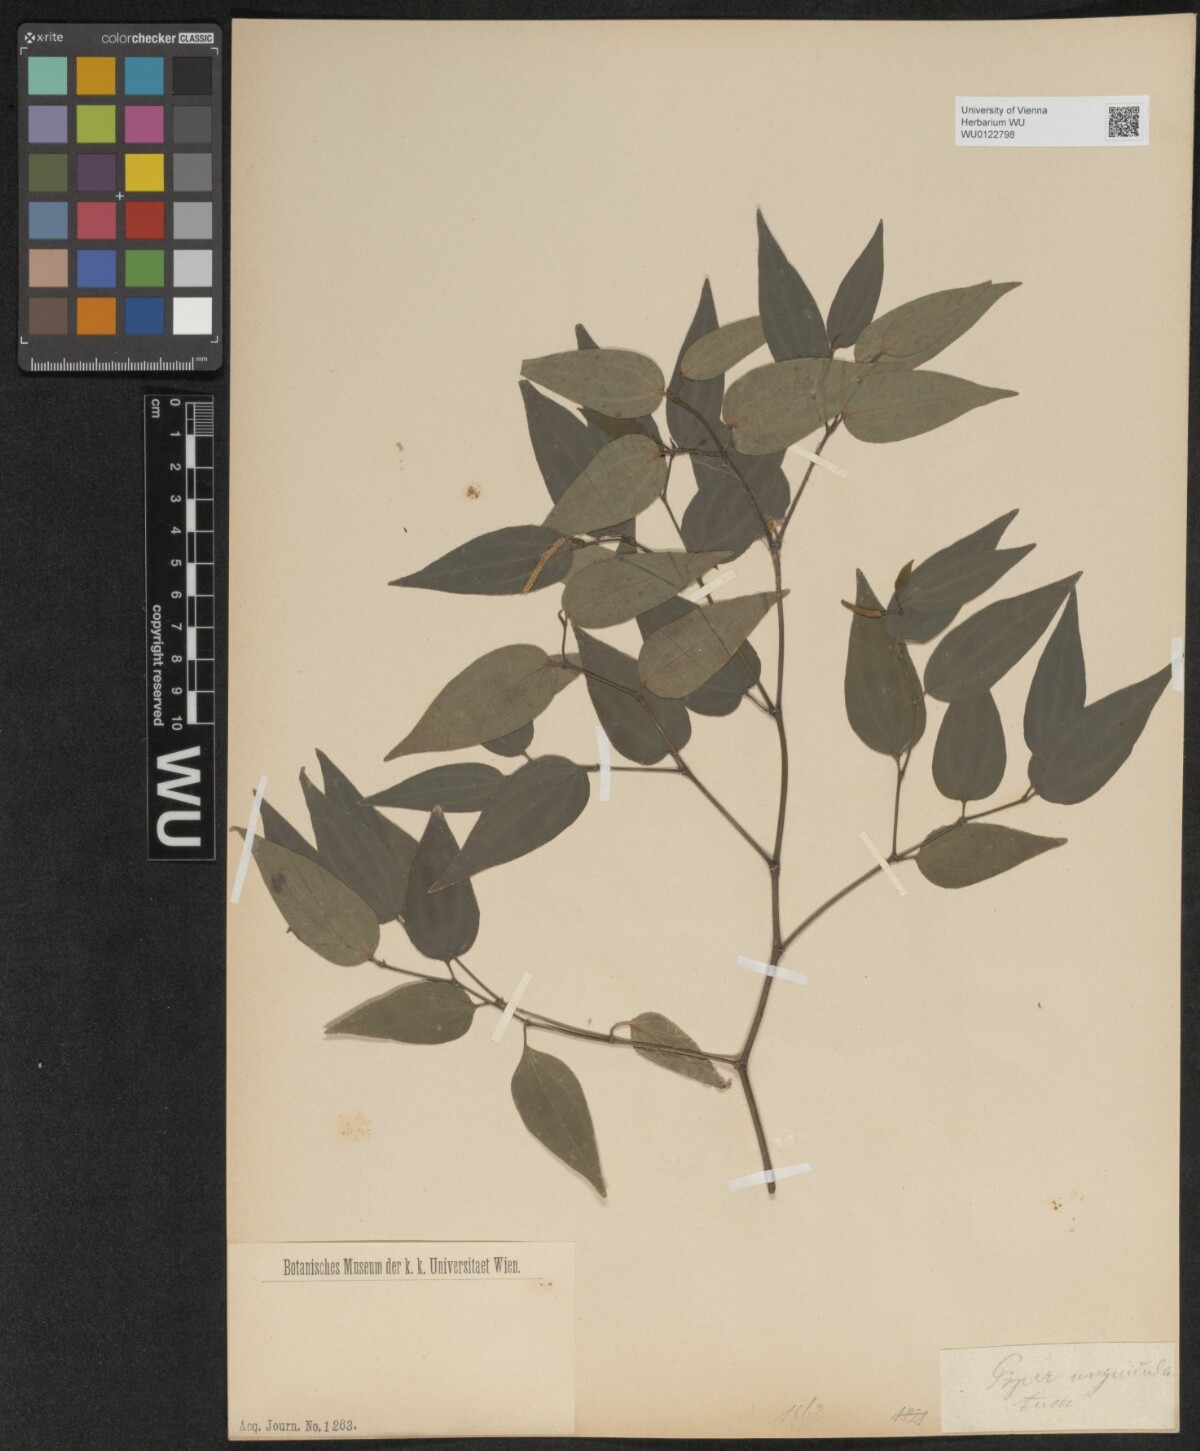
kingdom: Plantae
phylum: Tracheophyta
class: Magnoliopsida
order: Piperales
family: Piperaceae
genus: Piper
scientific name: Piper unguiculatum
